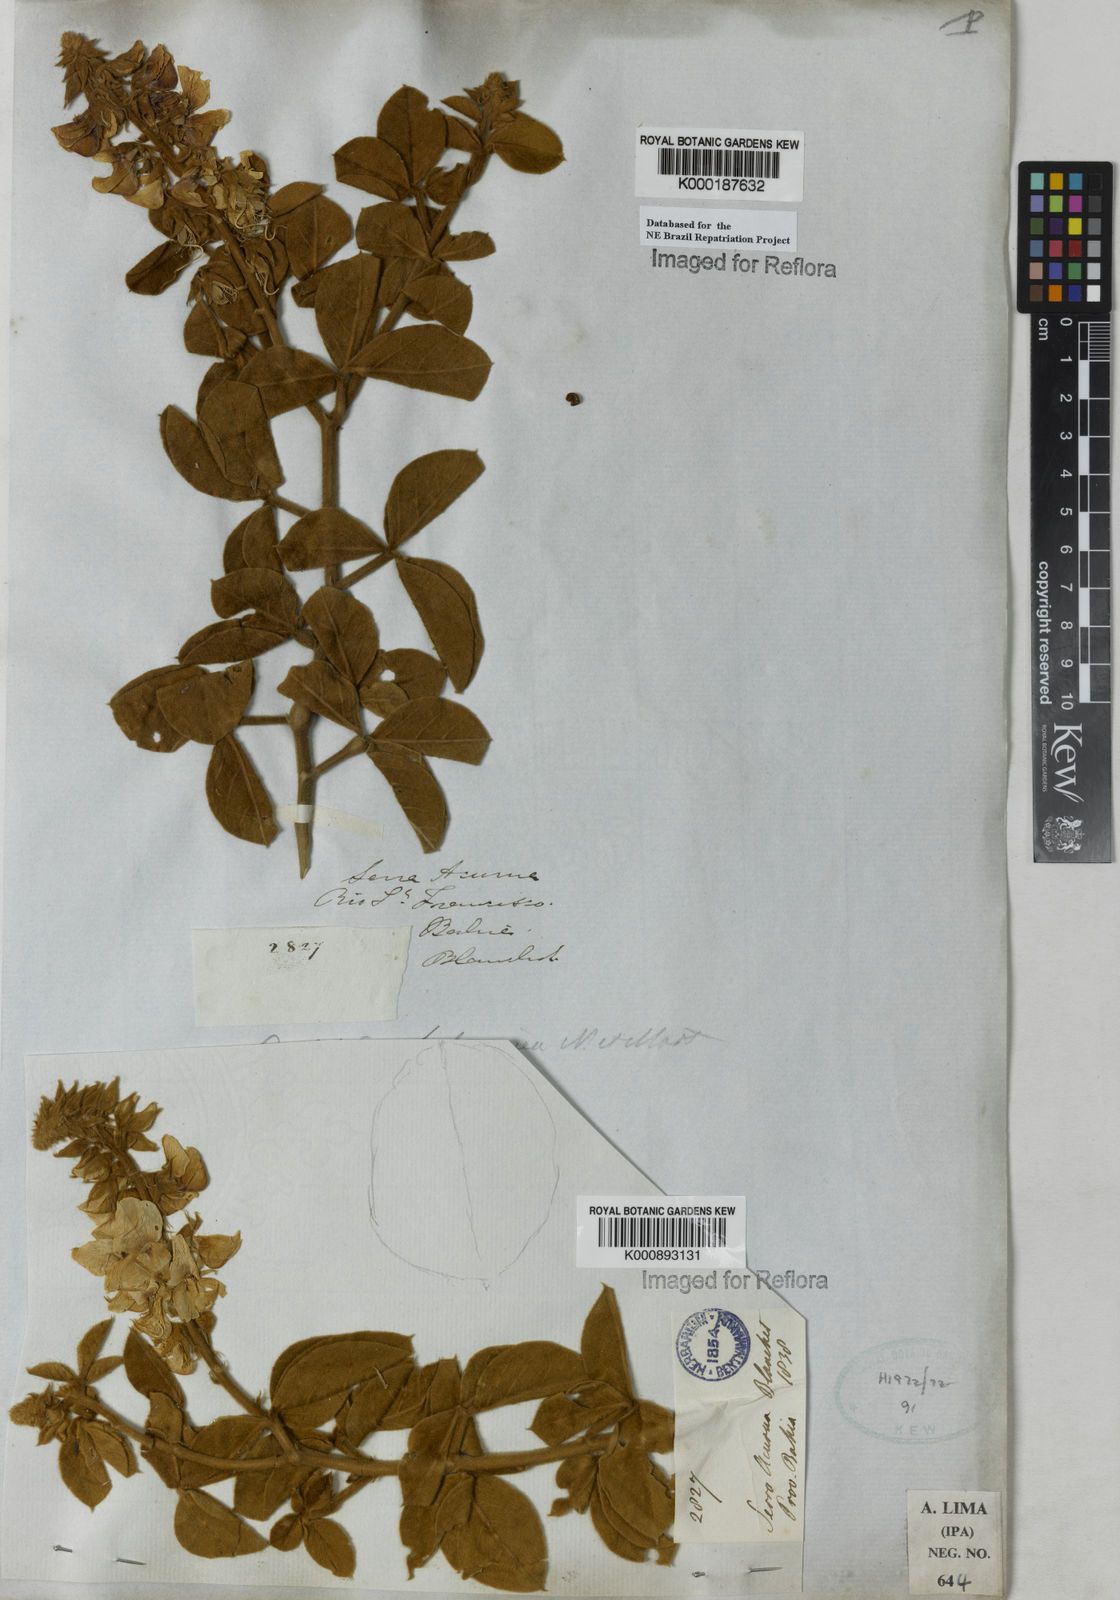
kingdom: Plantae
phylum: Tracheophyta
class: Magnoliopsida
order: Fabales
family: Fabaceae
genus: Crotalaria
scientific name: Crotalaria holosericea
